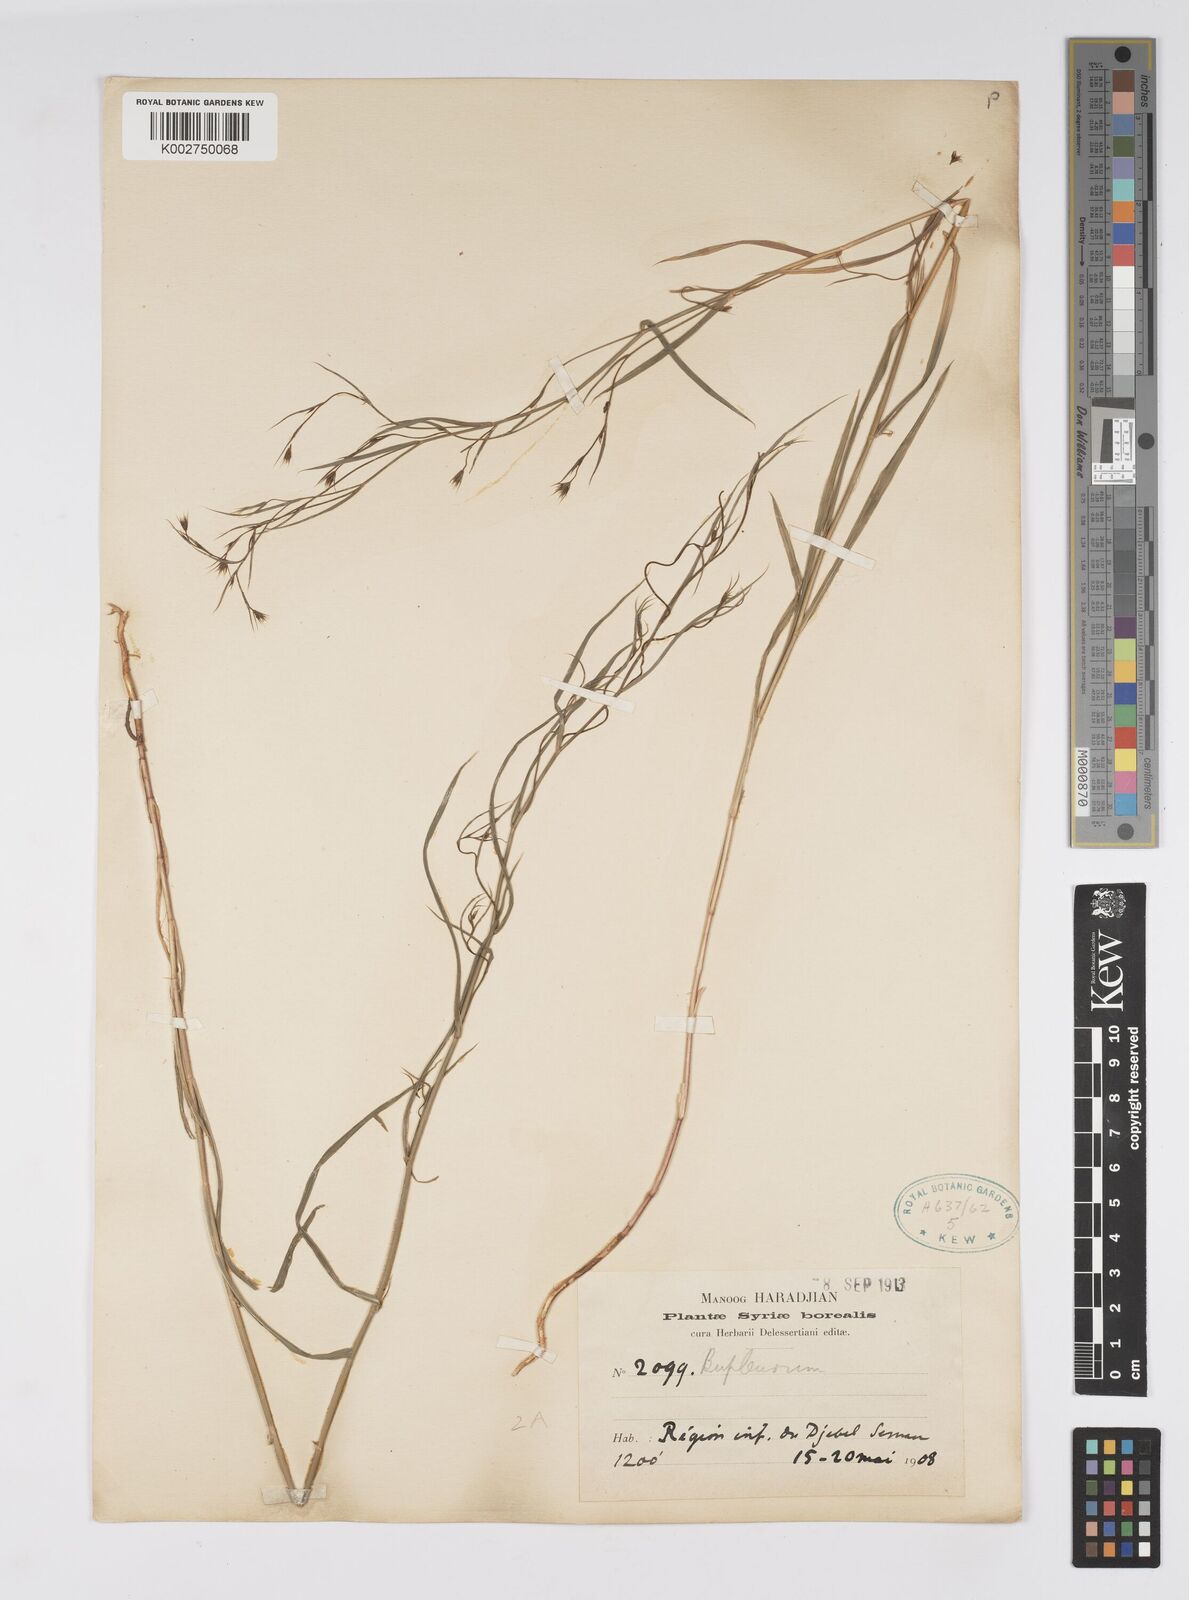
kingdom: Plantae
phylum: Tracheophyta
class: Magnoliopsida
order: Apiales
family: Apiaceae
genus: Bupleurum
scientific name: Bupleurum
